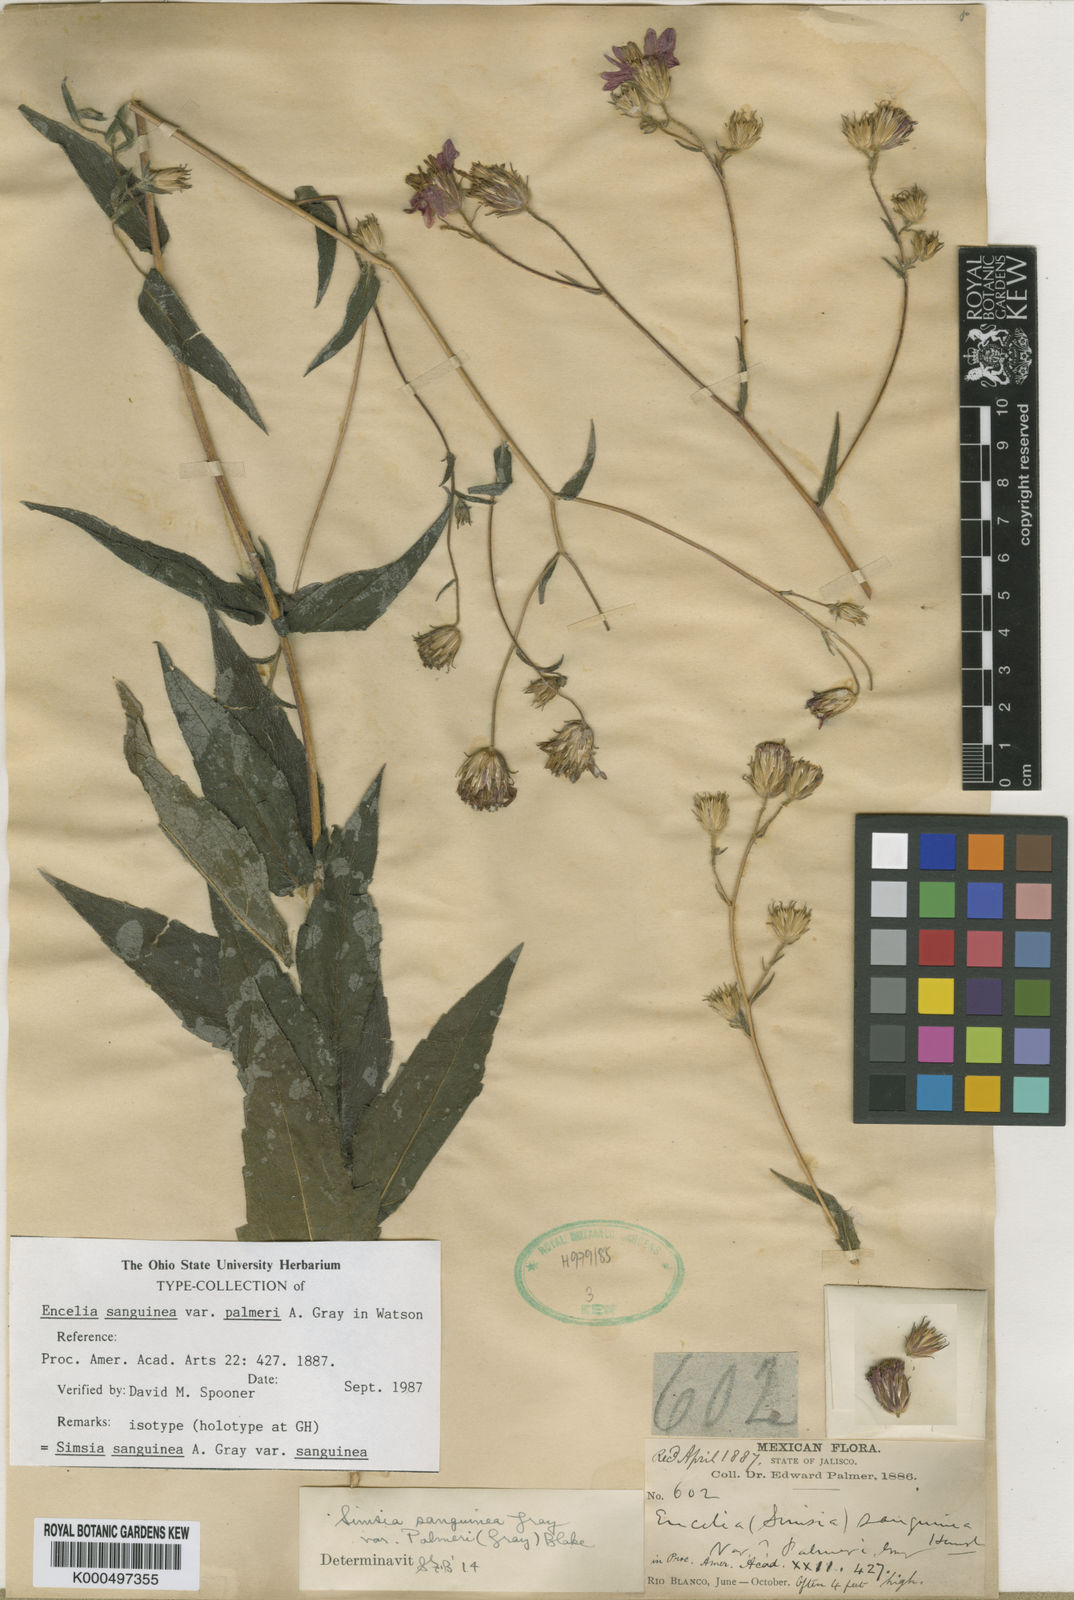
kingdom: Plantae
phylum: Tracheophyta
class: Magnoliopsida
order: Asterales
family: Asteraceae
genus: Simsia
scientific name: Simsia sanguinea
